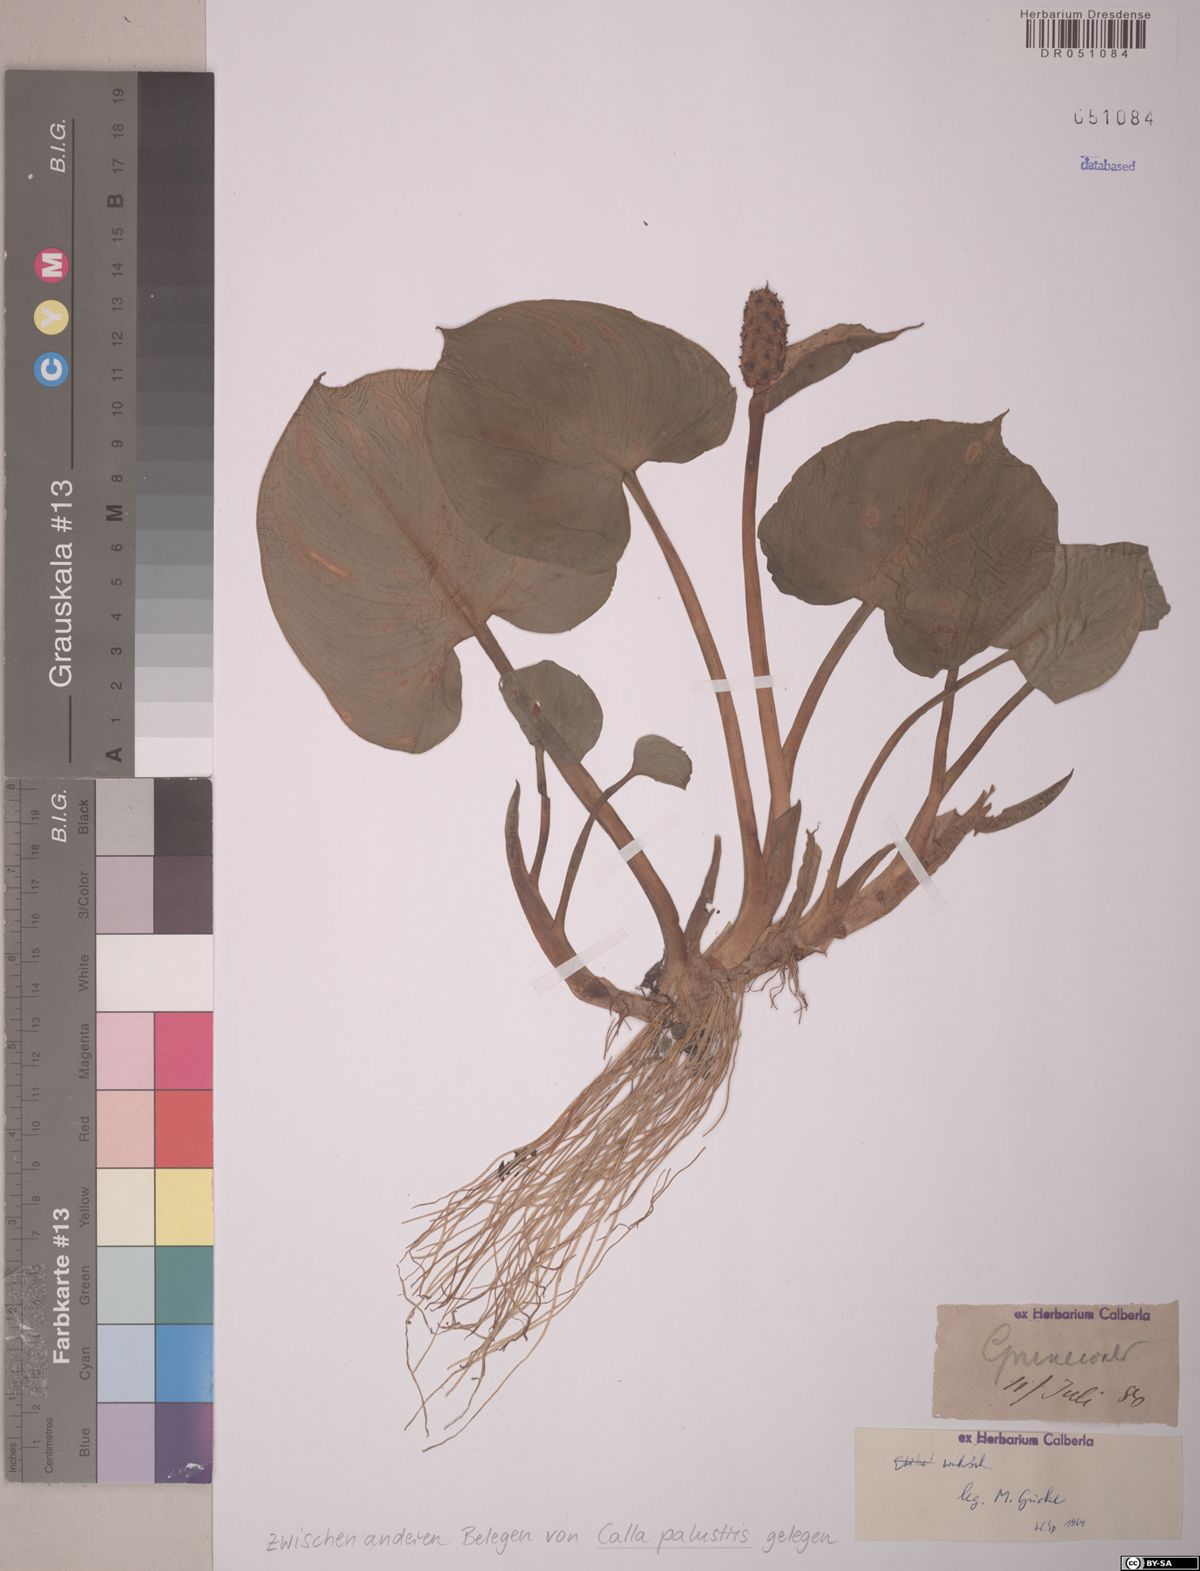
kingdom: Plantae
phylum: Tracheophyta
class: Liliopsida
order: Alismatales
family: Araceae
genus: Calla
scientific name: Calla palustris
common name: Bog arum
